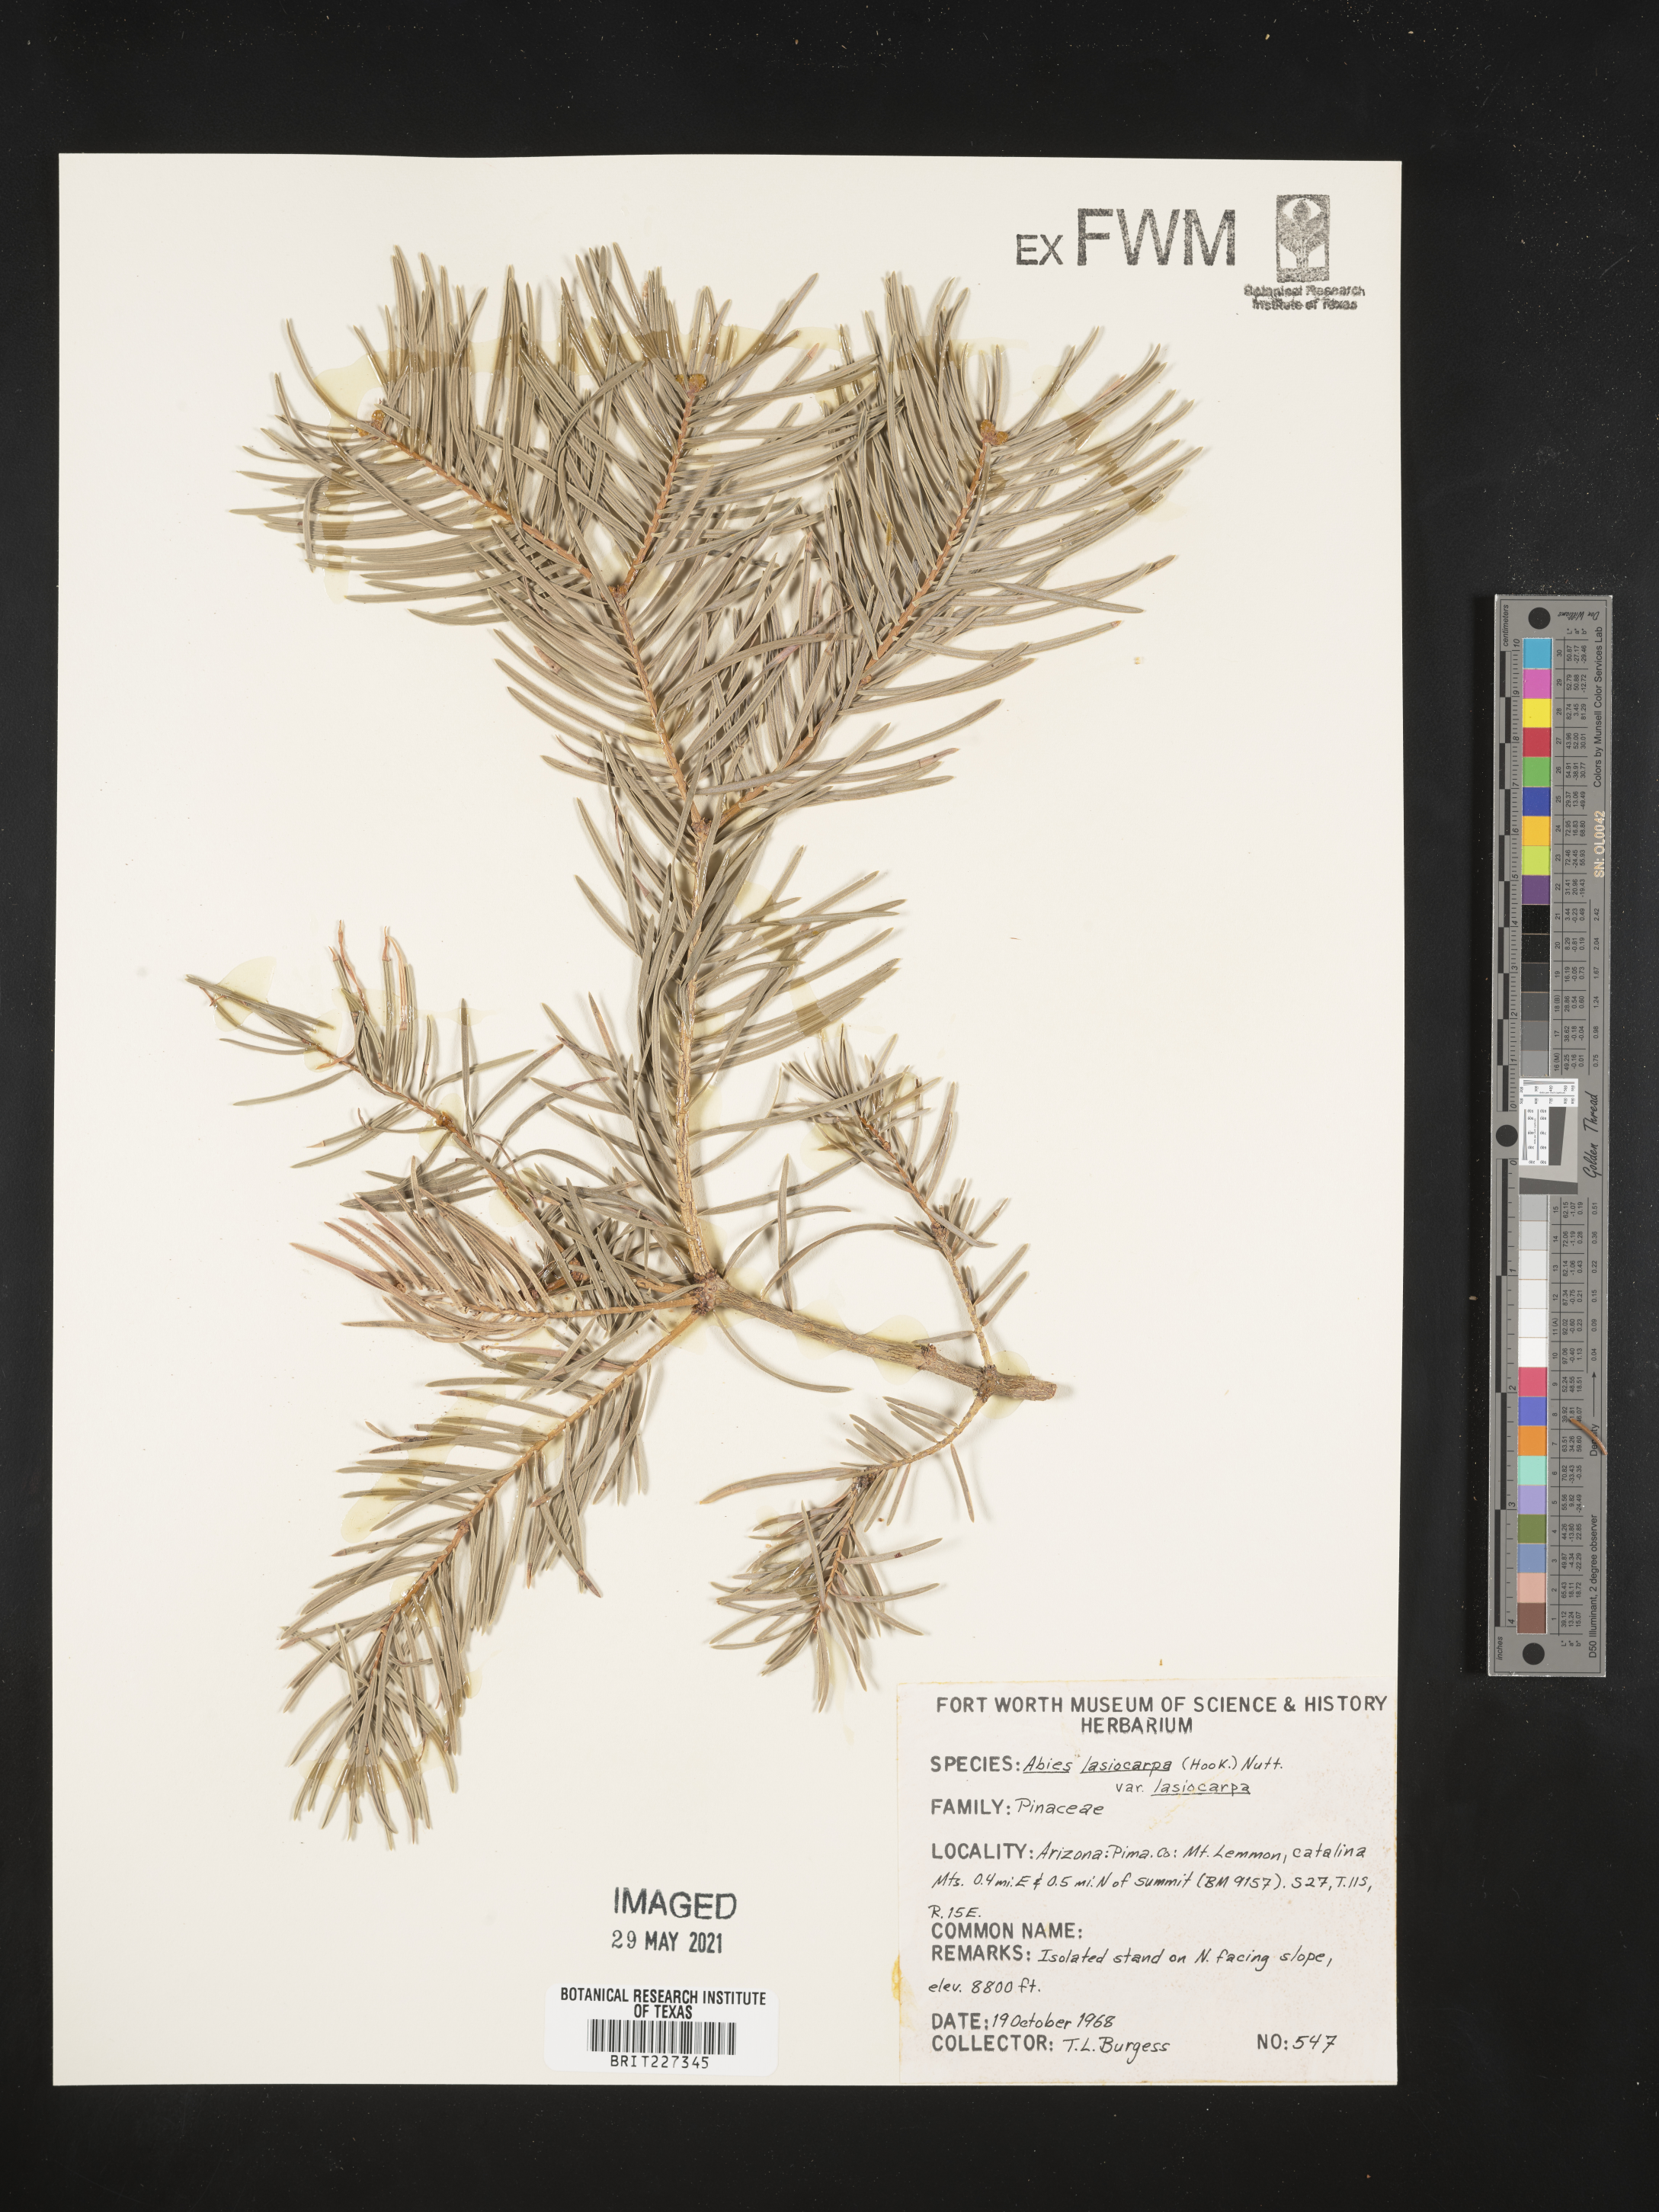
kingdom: Plantae
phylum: Tracheophyta
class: Pinopsida
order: Pinales
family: Pinaceae
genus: Abies
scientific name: Abies lasiocarpa
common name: Subalpine fir
